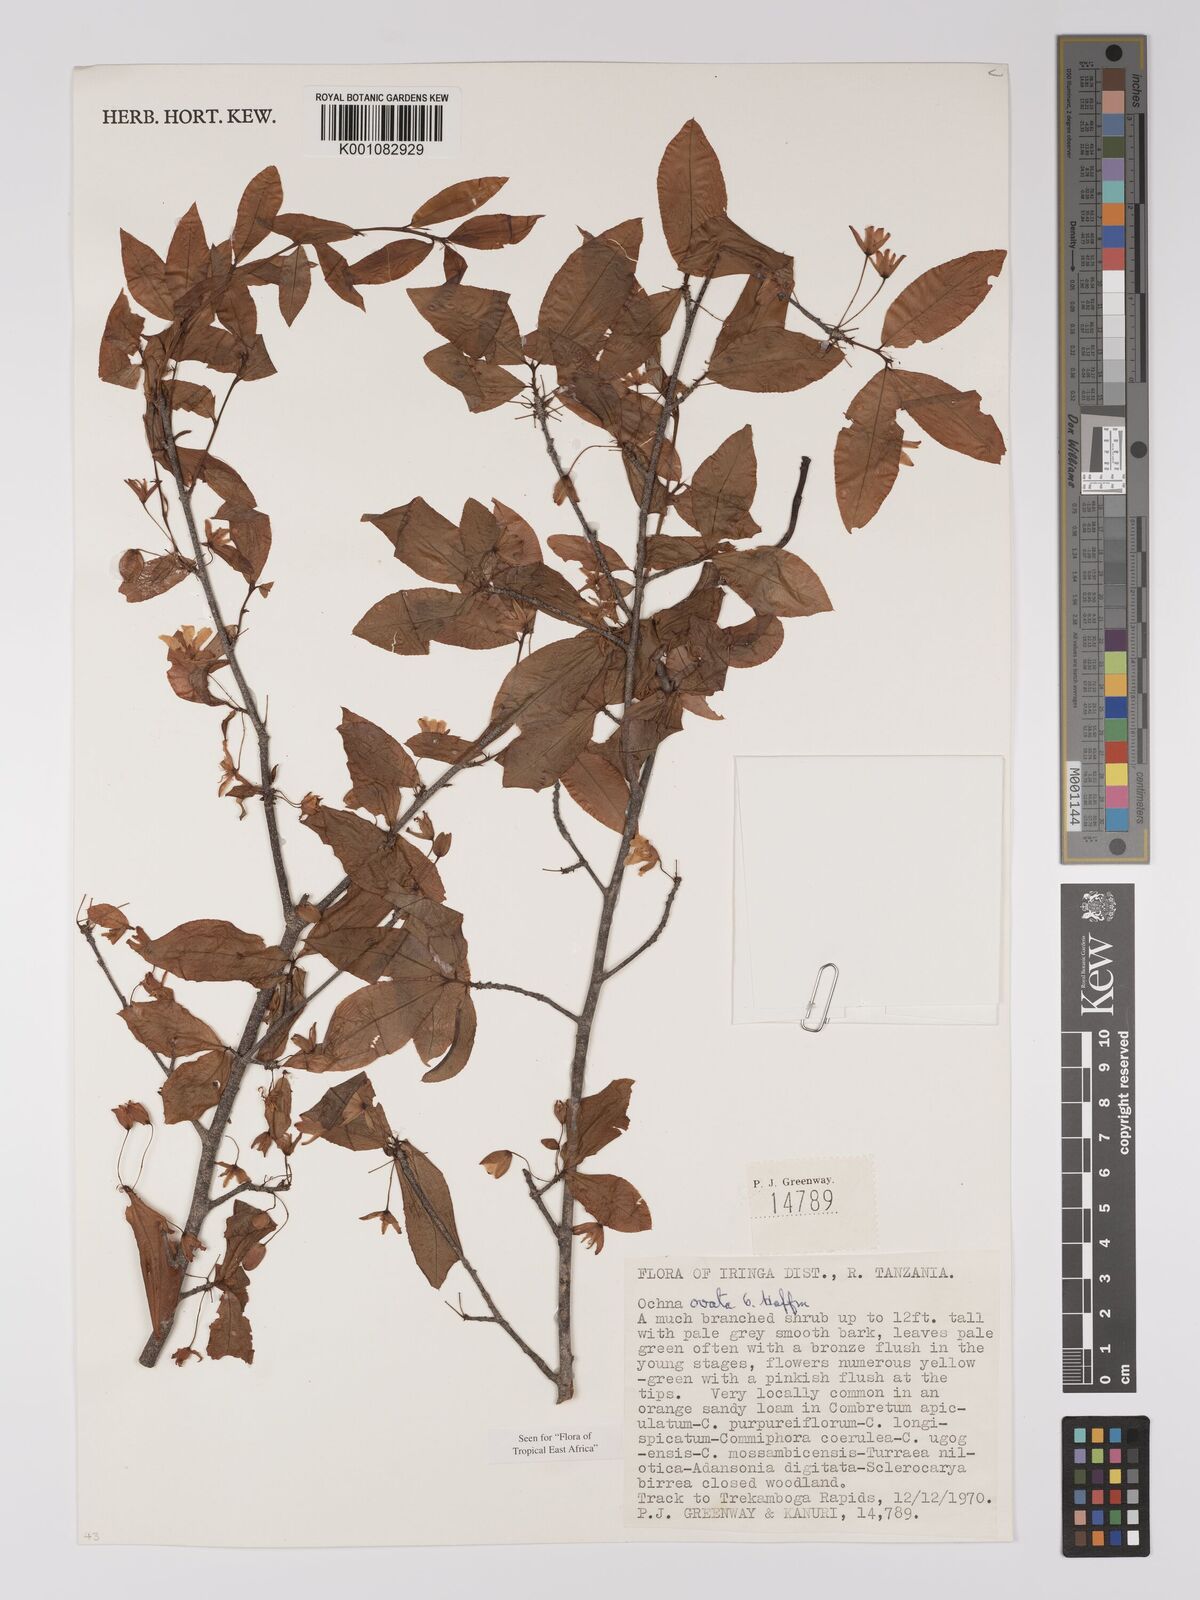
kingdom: Plantae
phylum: Tracheophyta
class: Magnoliopsida
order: Malpighiales
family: Ochnaceae
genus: Ochna
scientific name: Ochna ovata
